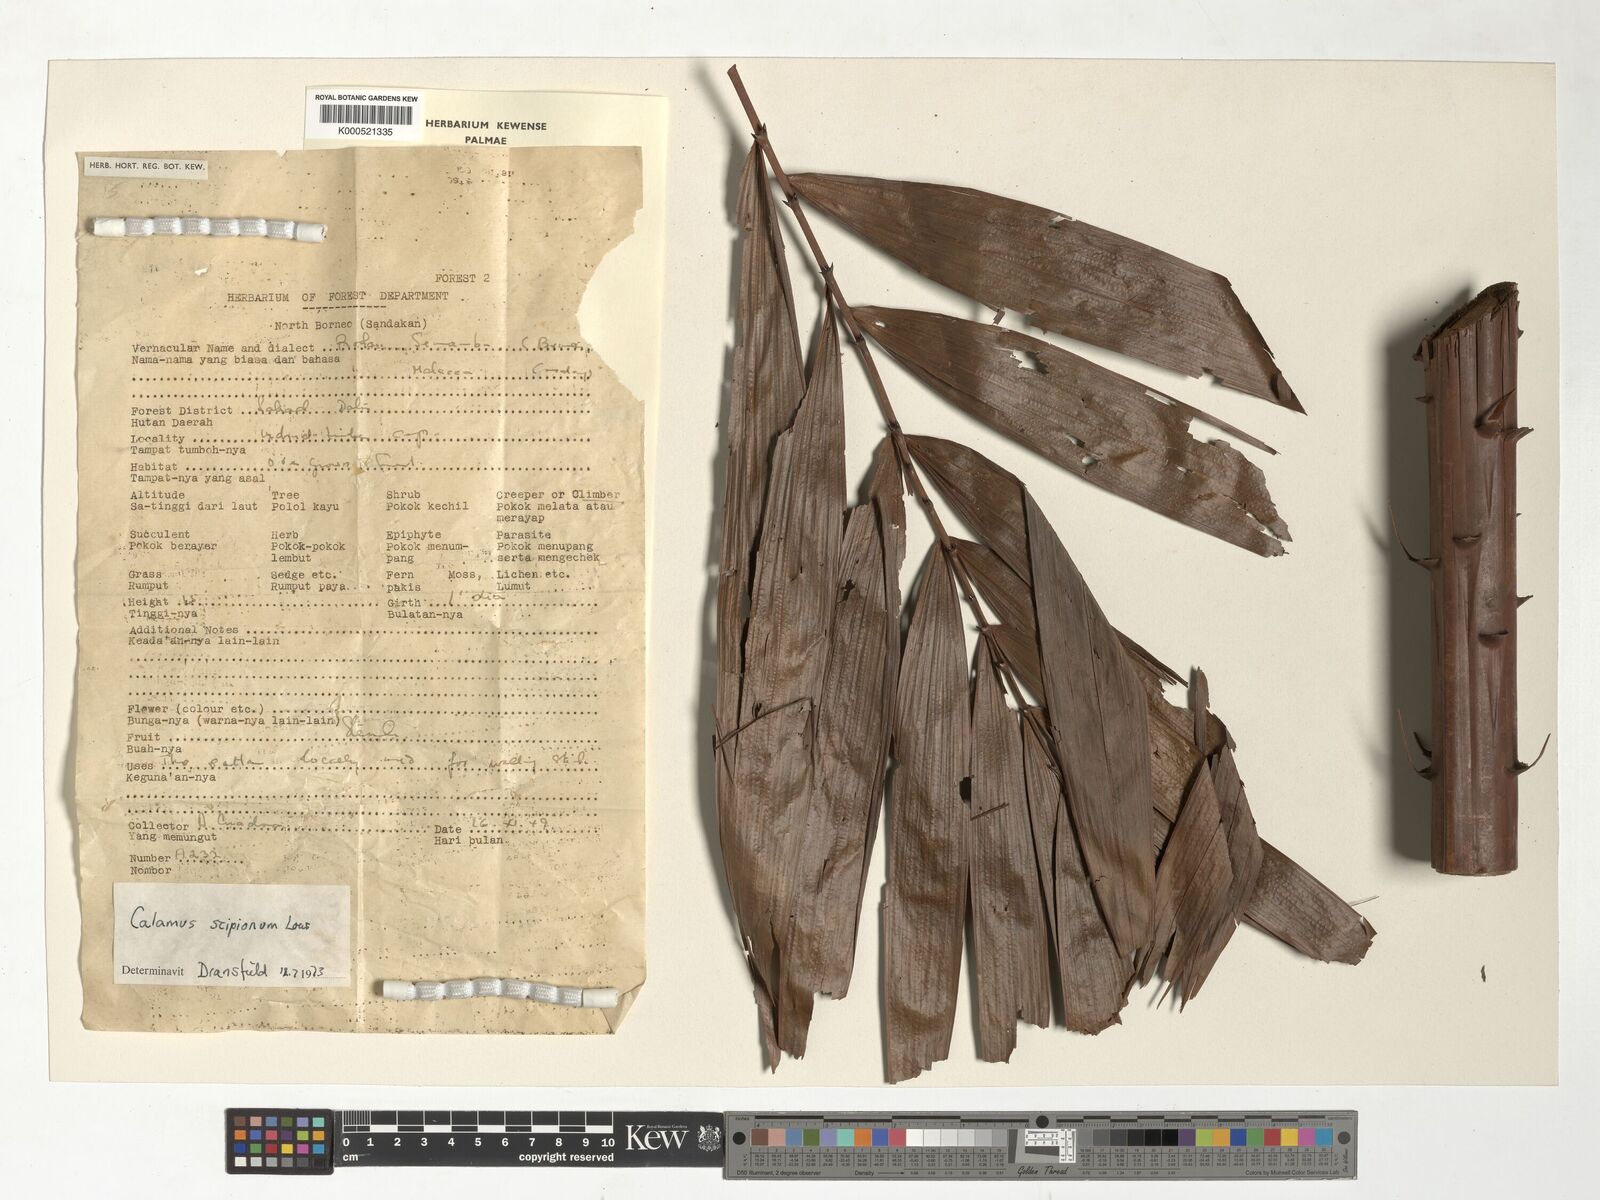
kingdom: Plantae
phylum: Tracheophyta
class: Liliopsida
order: Arecales
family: Arecaceae
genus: Calamus
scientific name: Calamus scipionum
